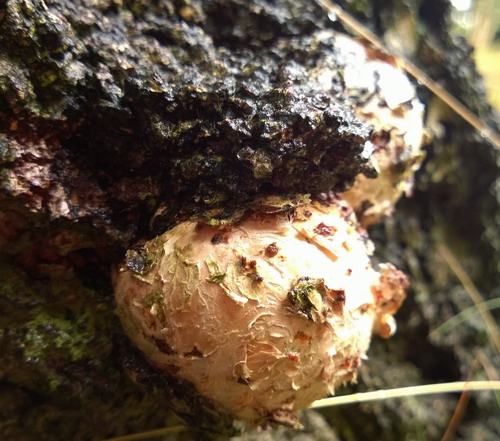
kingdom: Fungi
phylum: Basidiomycota
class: Agaricomycetes
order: Hymenochaetales
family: Hymenochaetaceae
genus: Inonotus
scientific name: Inonotus obliquus
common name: birke-spejlporesvamp
